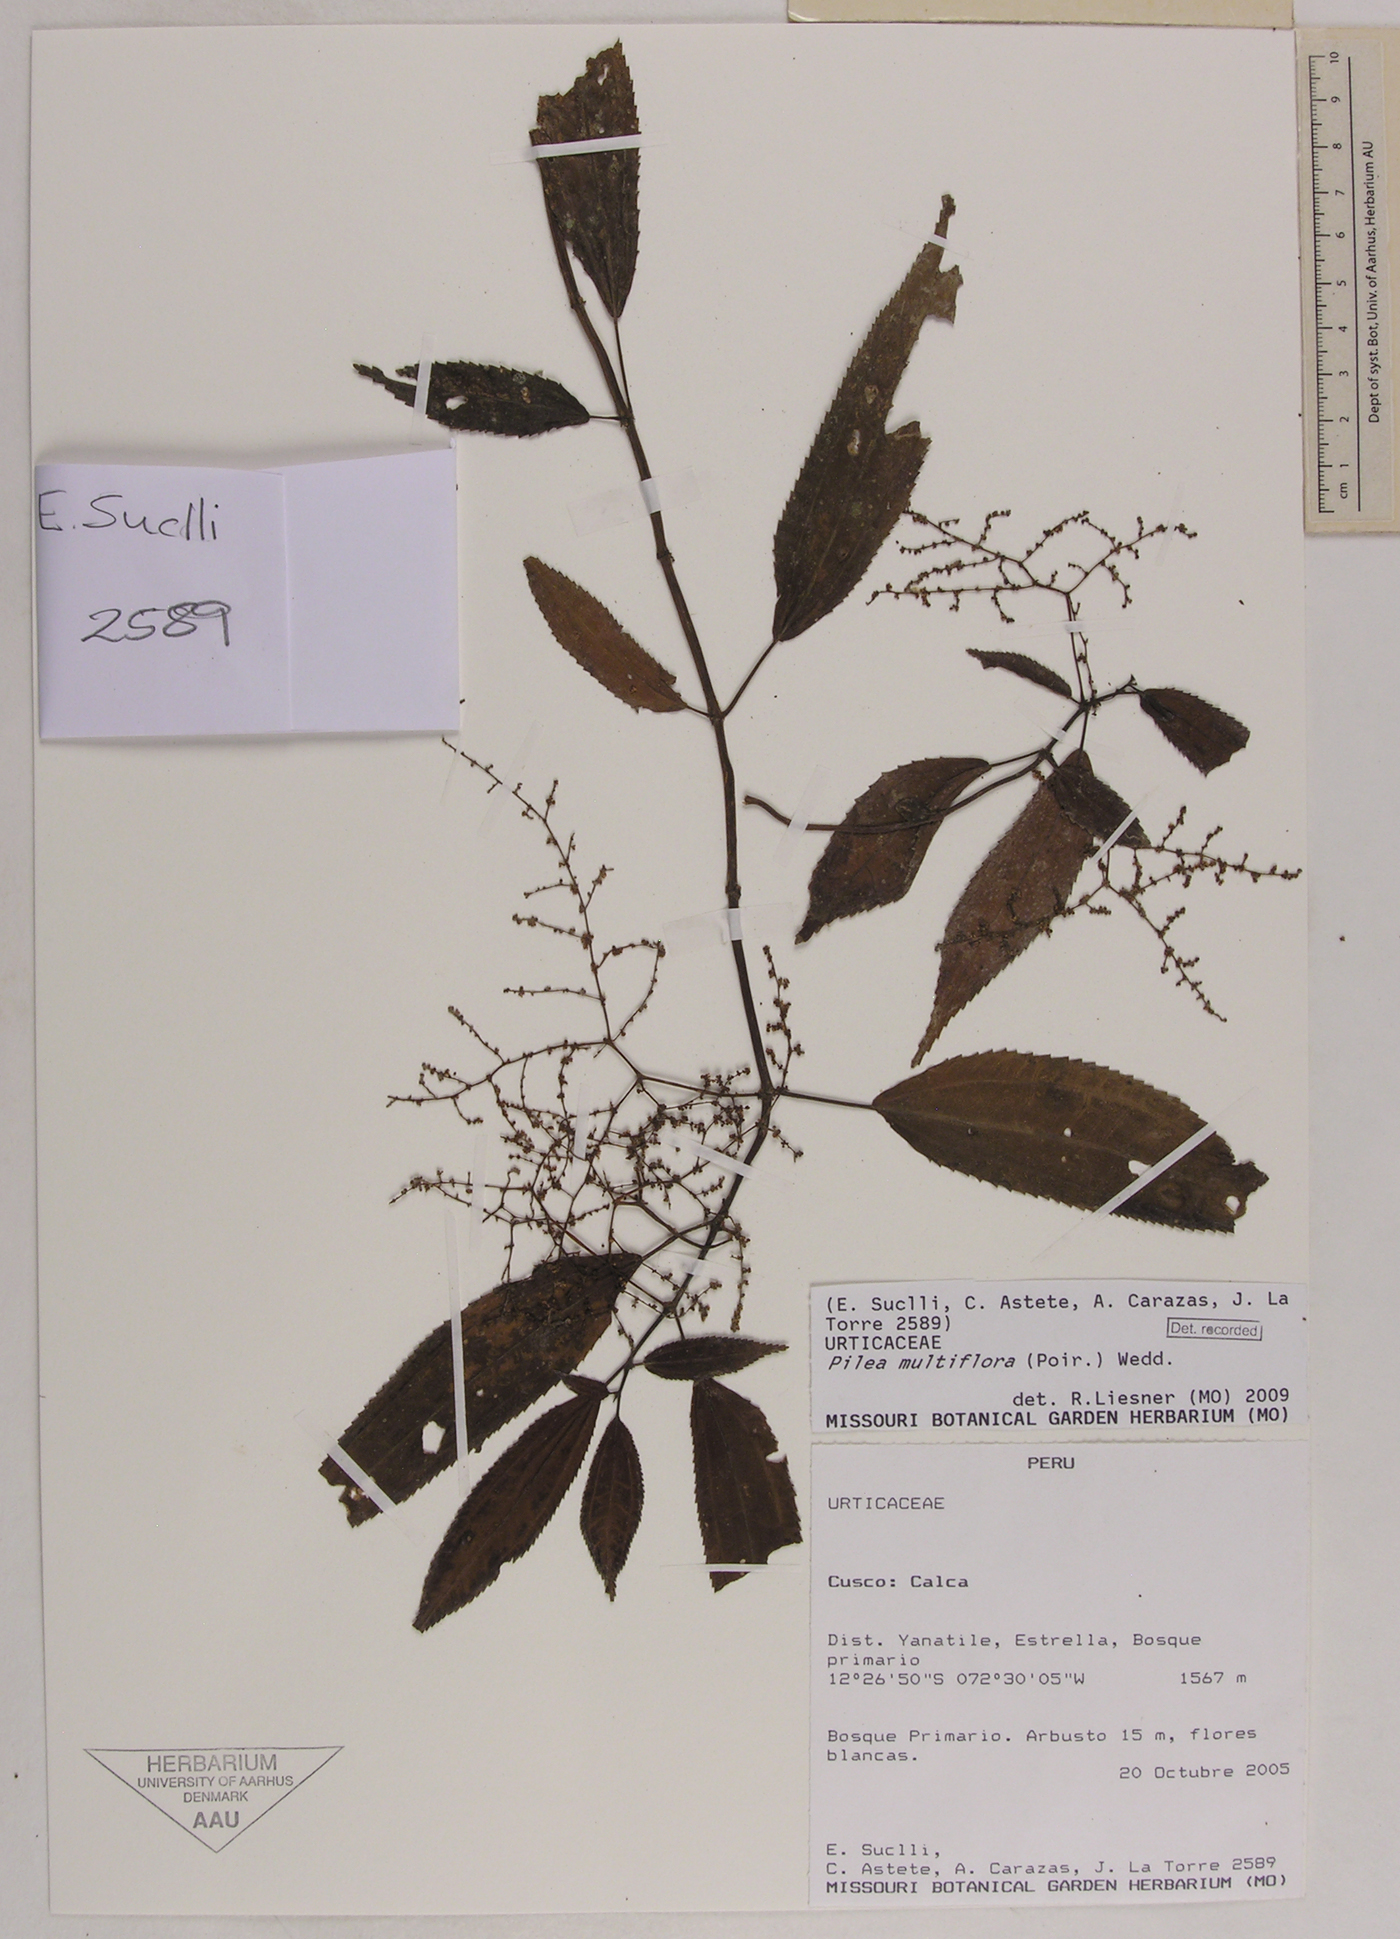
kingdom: Plantae
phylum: Tracheophyta
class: Magnoliopsida
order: Rosales
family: Urticaceae
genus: Pilea
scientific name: Pilea multiflora
